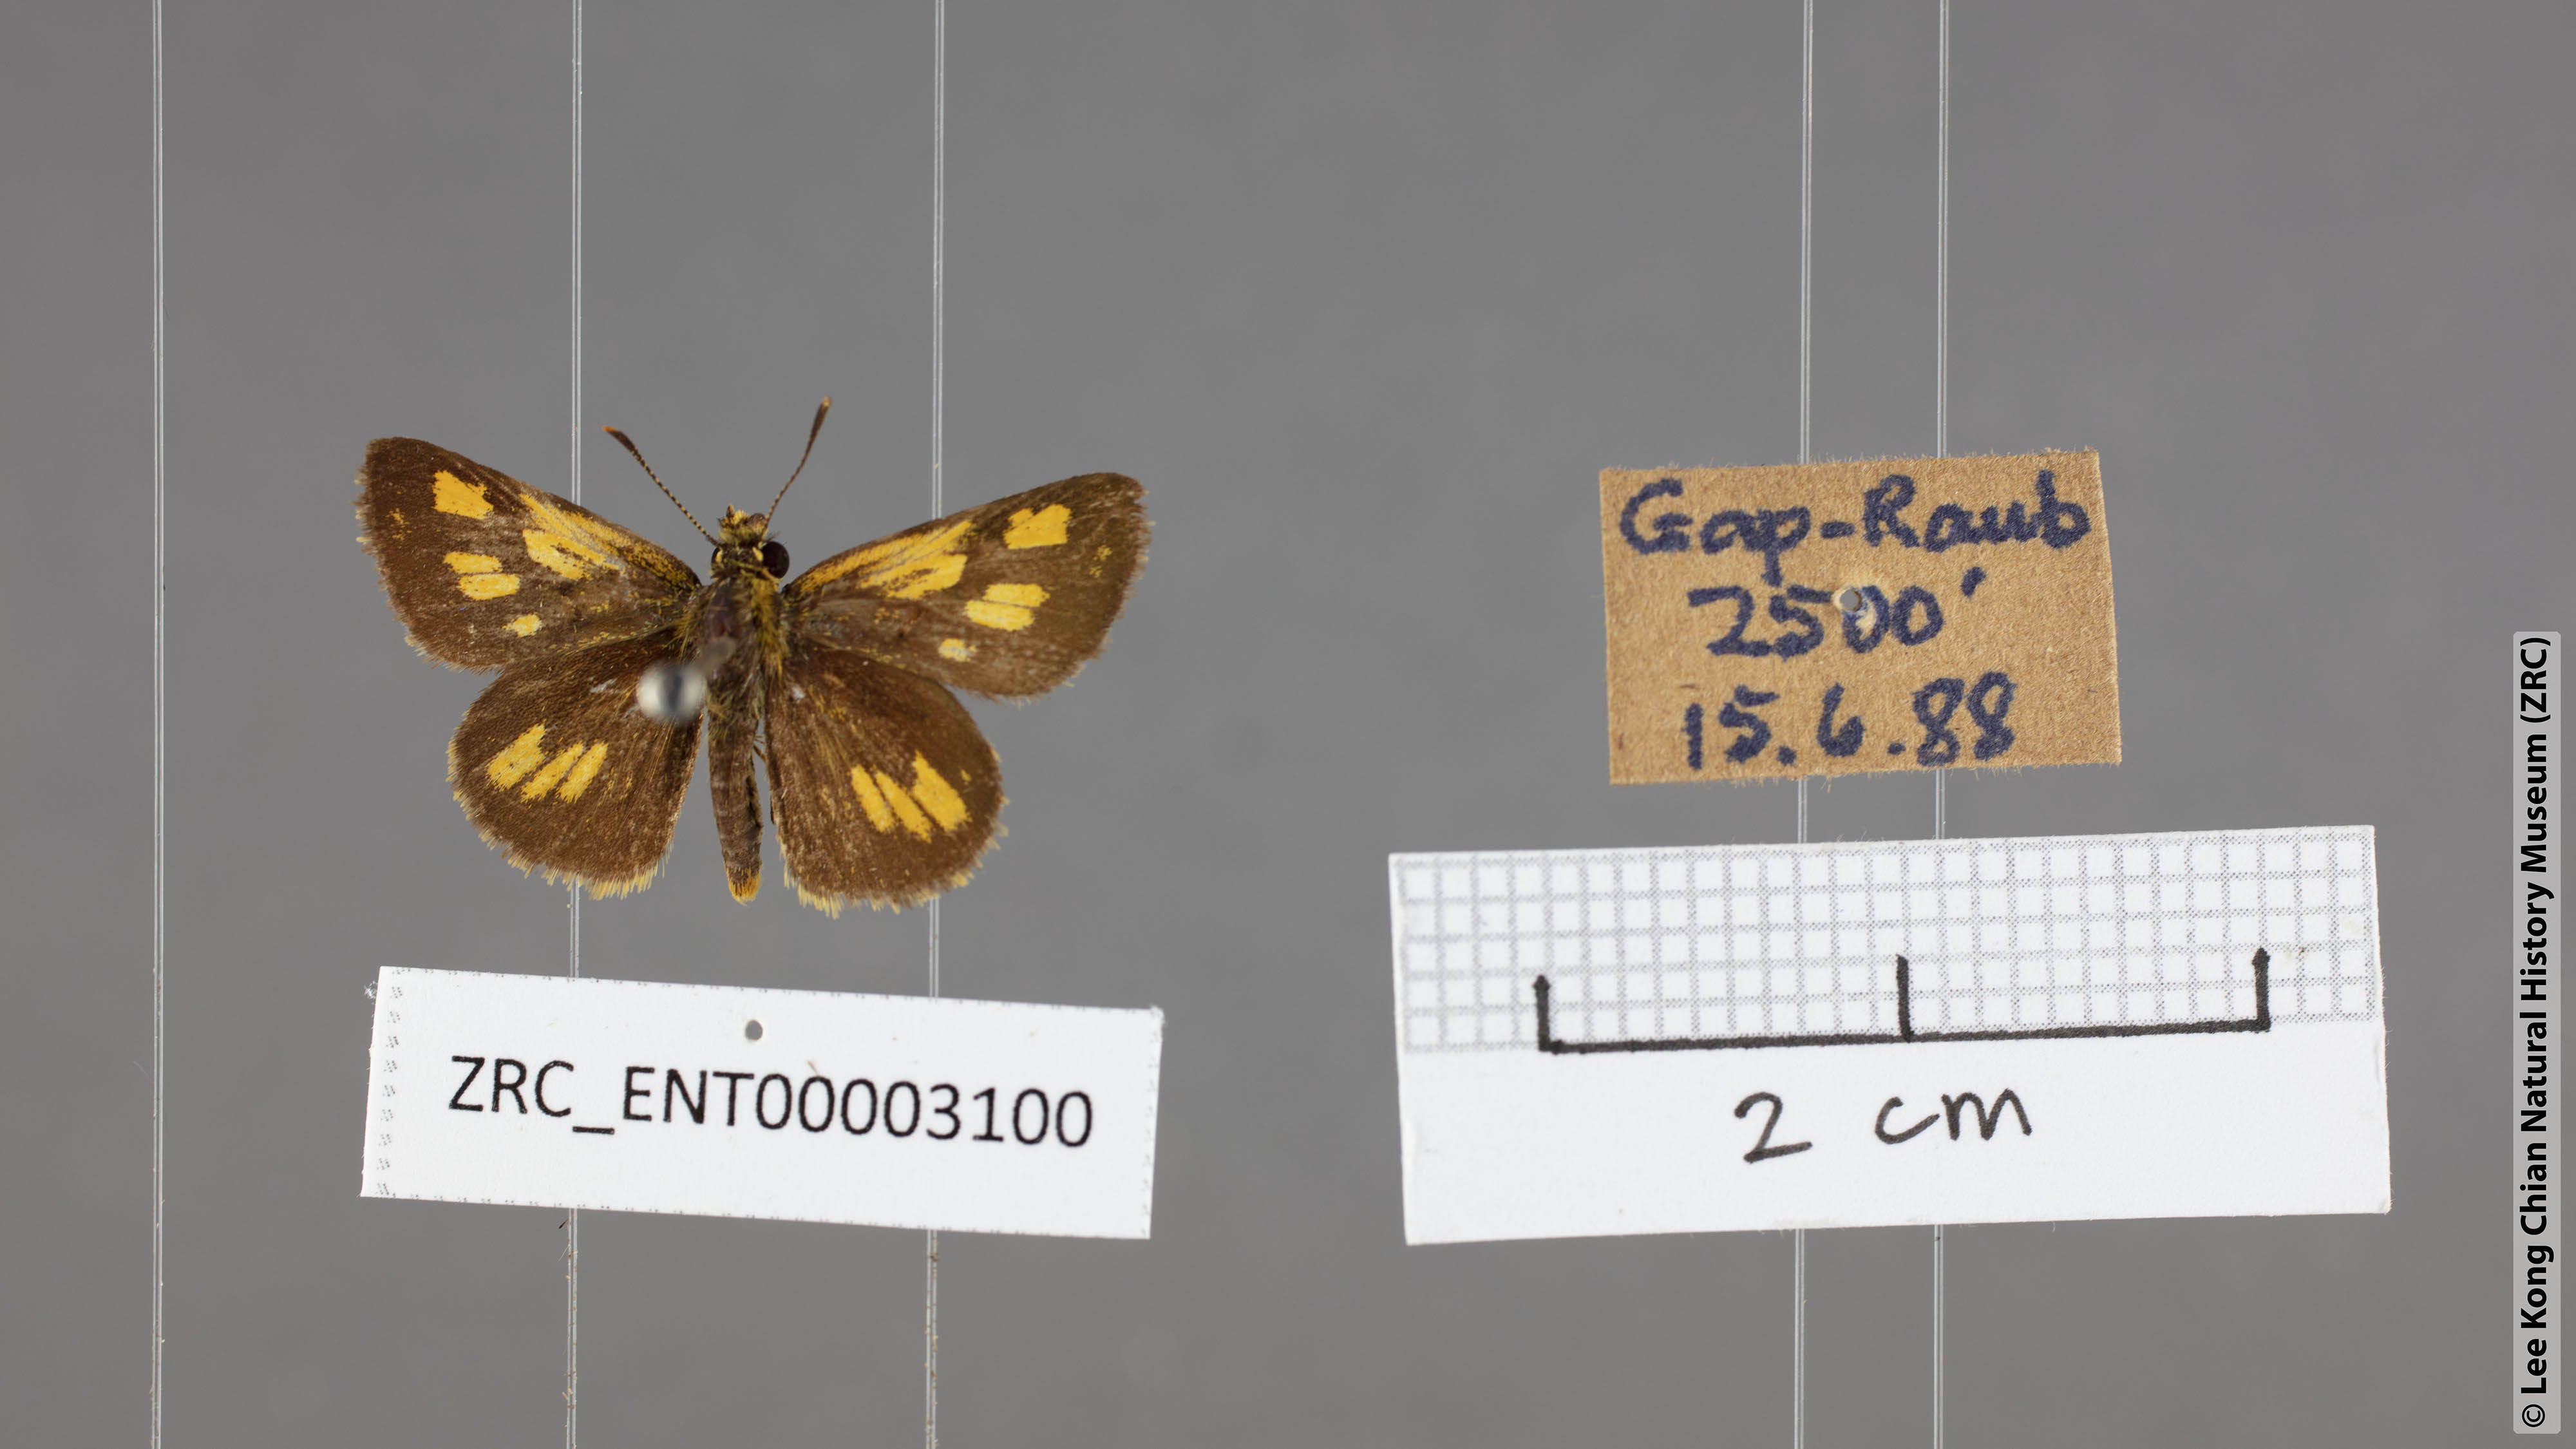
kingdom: Animalia
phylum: Arthropoda
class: Insecta
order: Lepidoptera
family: Hesperiidae
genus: Ampittia
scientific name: Ampittia dioscorides
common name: Common bush hopper
